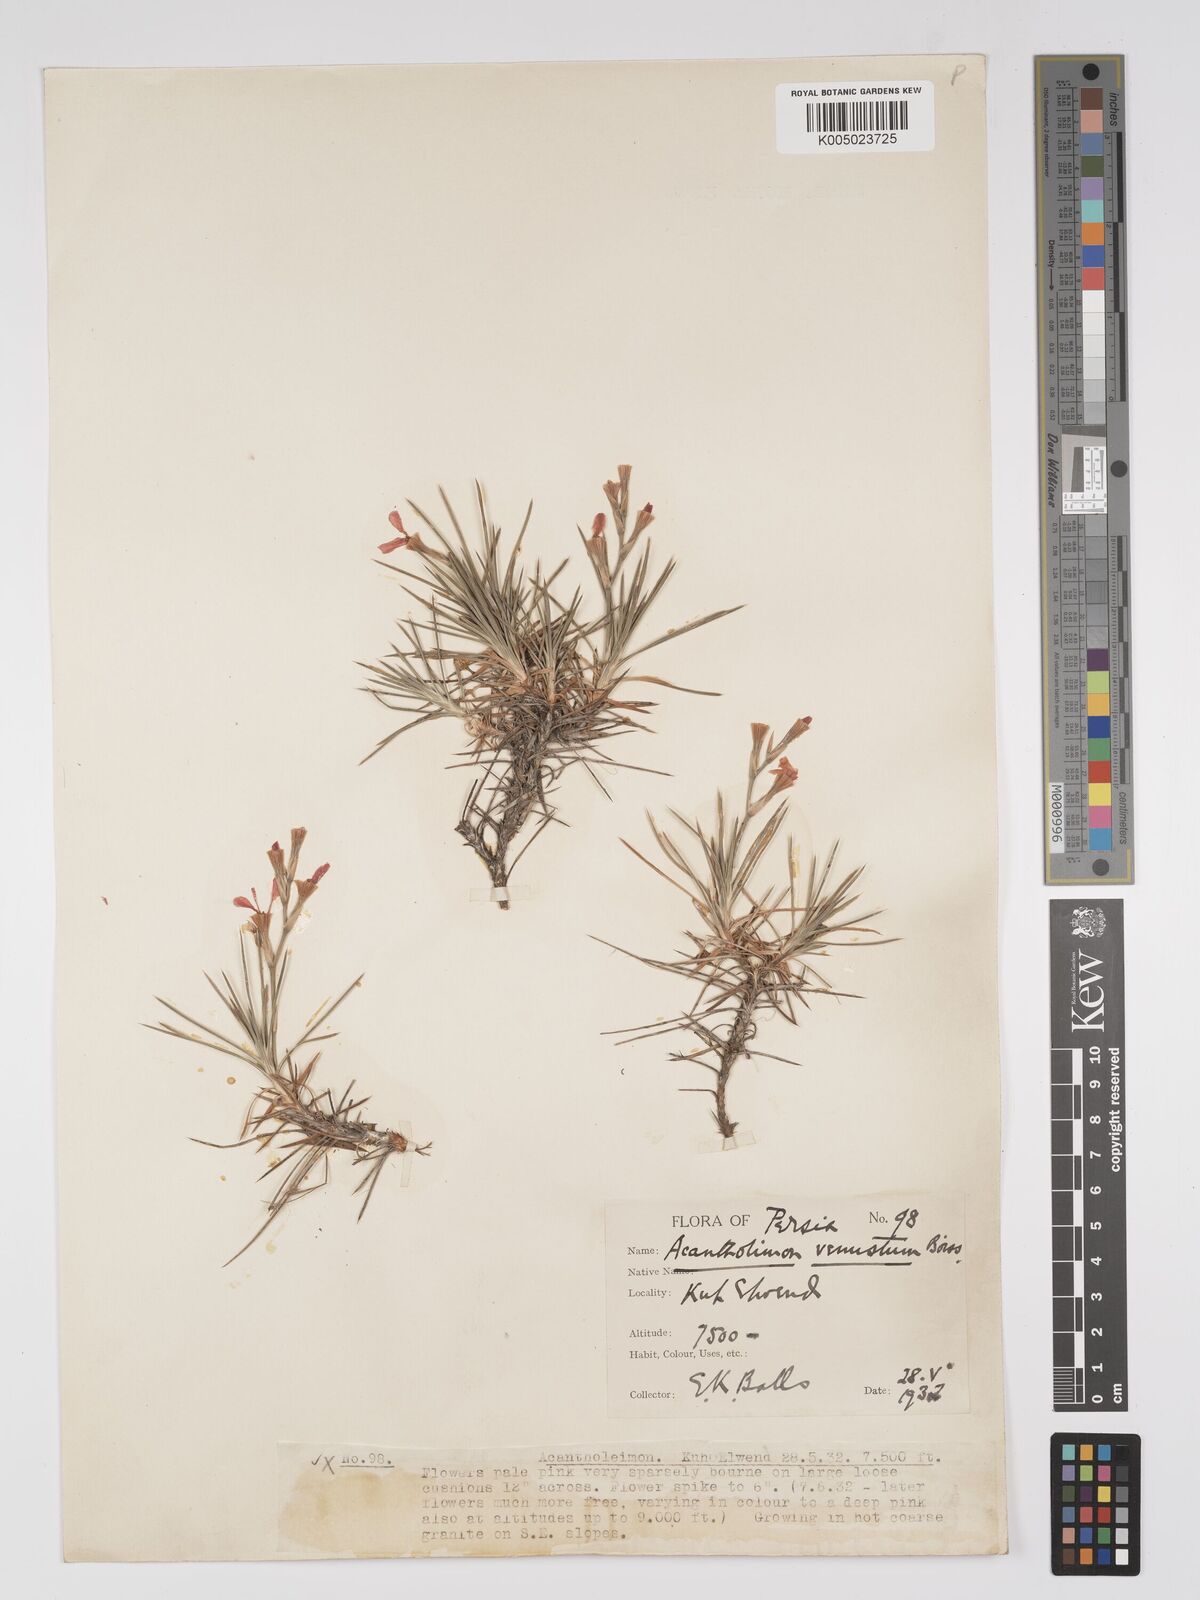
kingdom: Plantae
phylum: Tracheophyta
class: Magnoliopsida
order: Caryophyllales
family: Plumbaginaceae
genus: Acantholimon
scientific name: Acantholimon venustum
